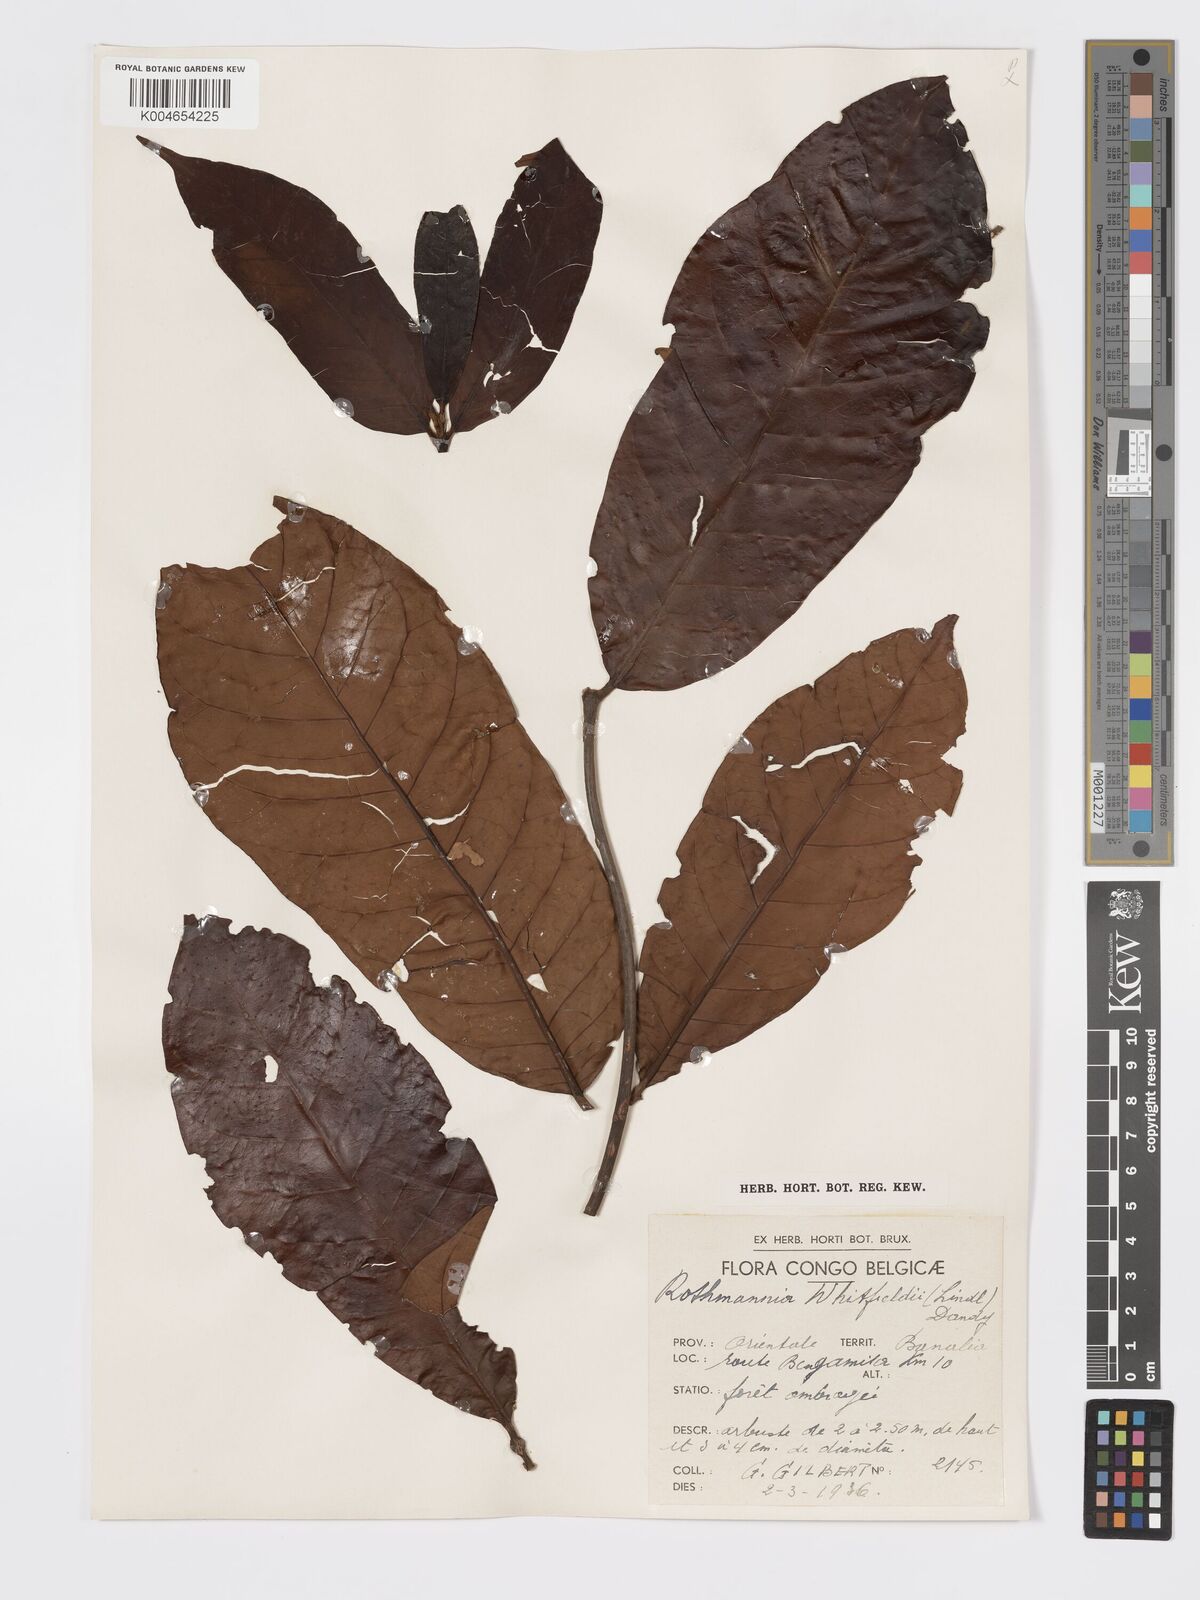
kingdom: Plantae
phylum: Tracheophyta
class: Magnoliopsida
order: Gentianales
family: Rubiaceae
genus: Rothmannia
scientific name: Rothmannia whitfieldii
